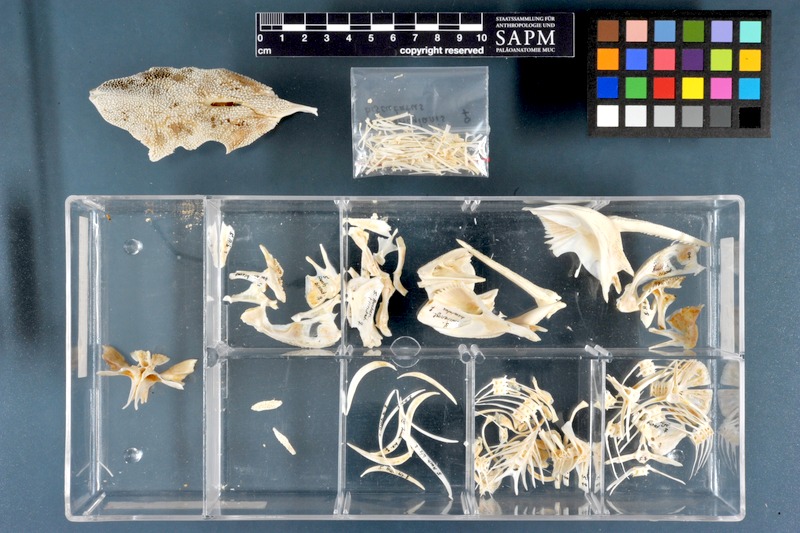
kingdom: Animalia
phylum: Chordata
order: Siluriformes
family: Claroteidae
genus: Auchenoglanis
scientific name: Auchenoglanis biscutatus
